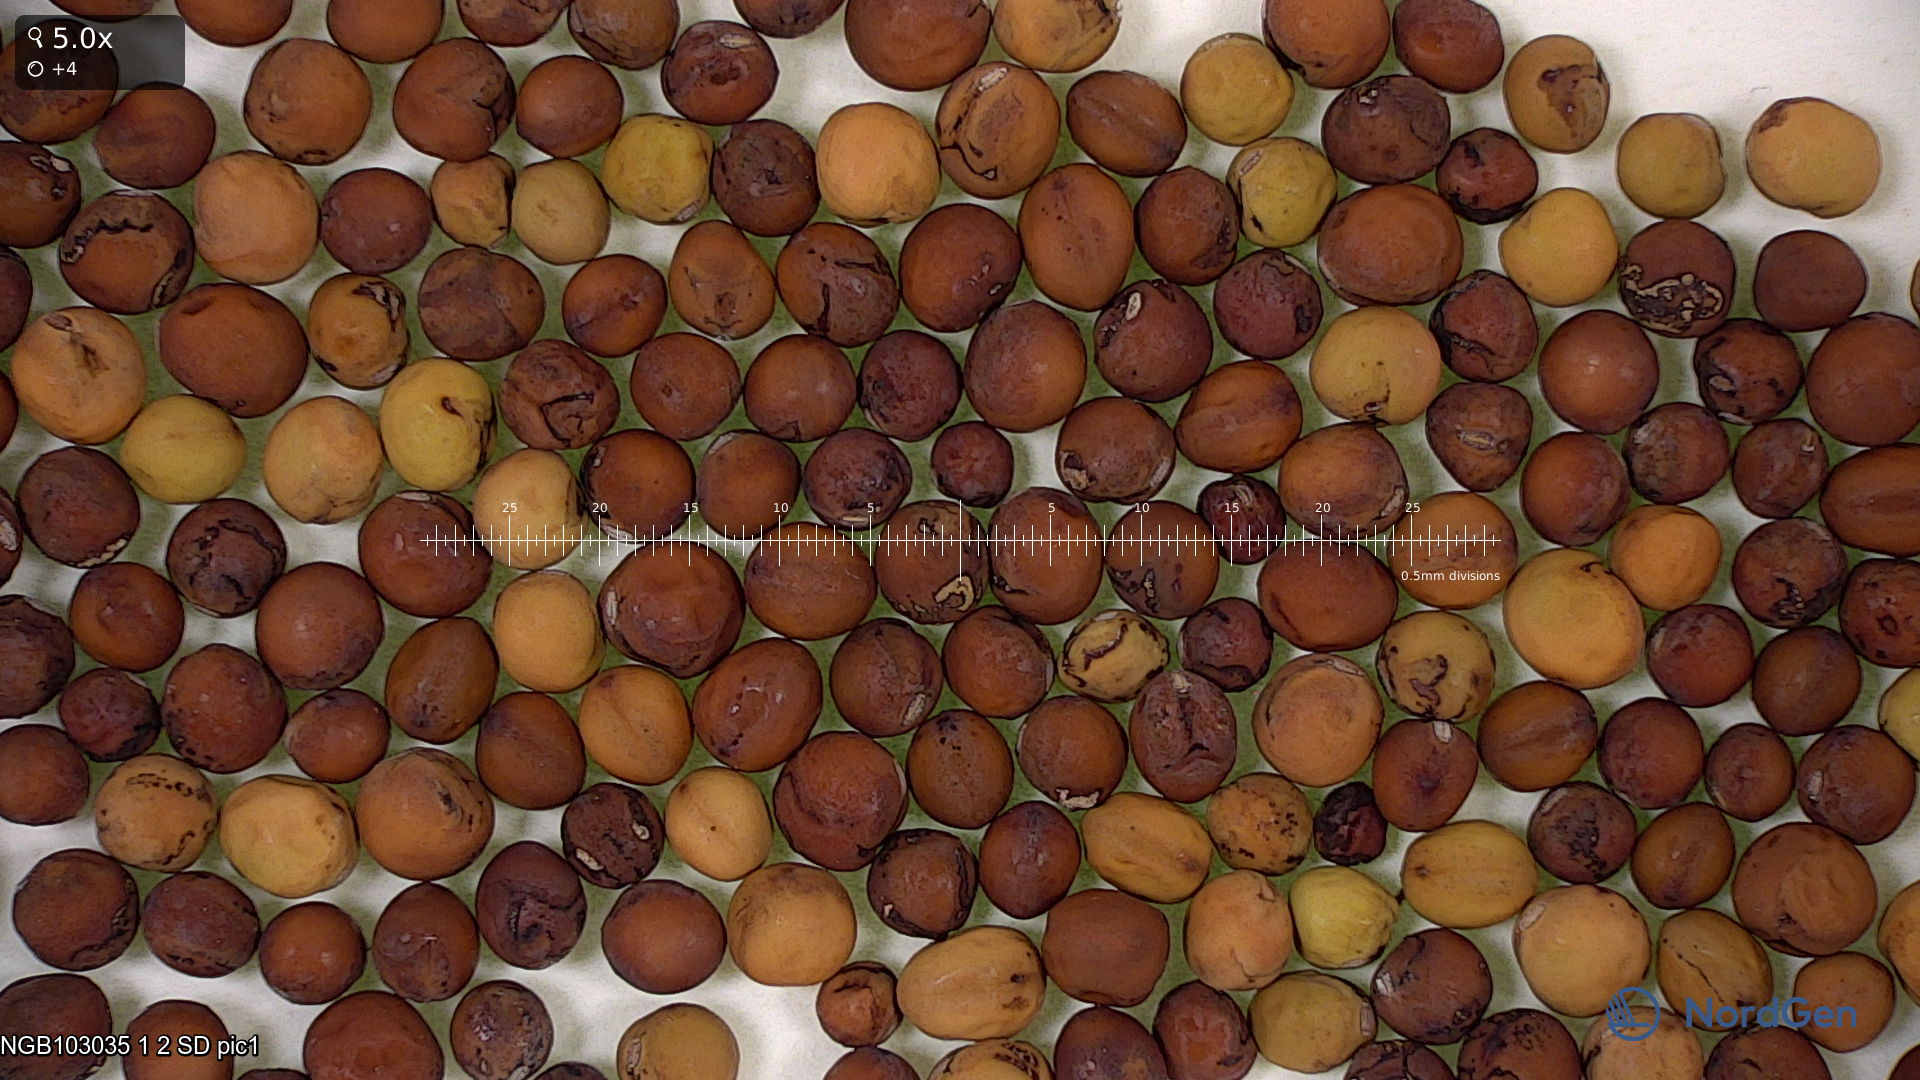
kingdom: Plantae
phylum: Tracheophyta
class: Magnoliopsida
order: Fabales
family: Fabaceae
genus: Lathyrus
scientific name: Lathyrus oleraceus
